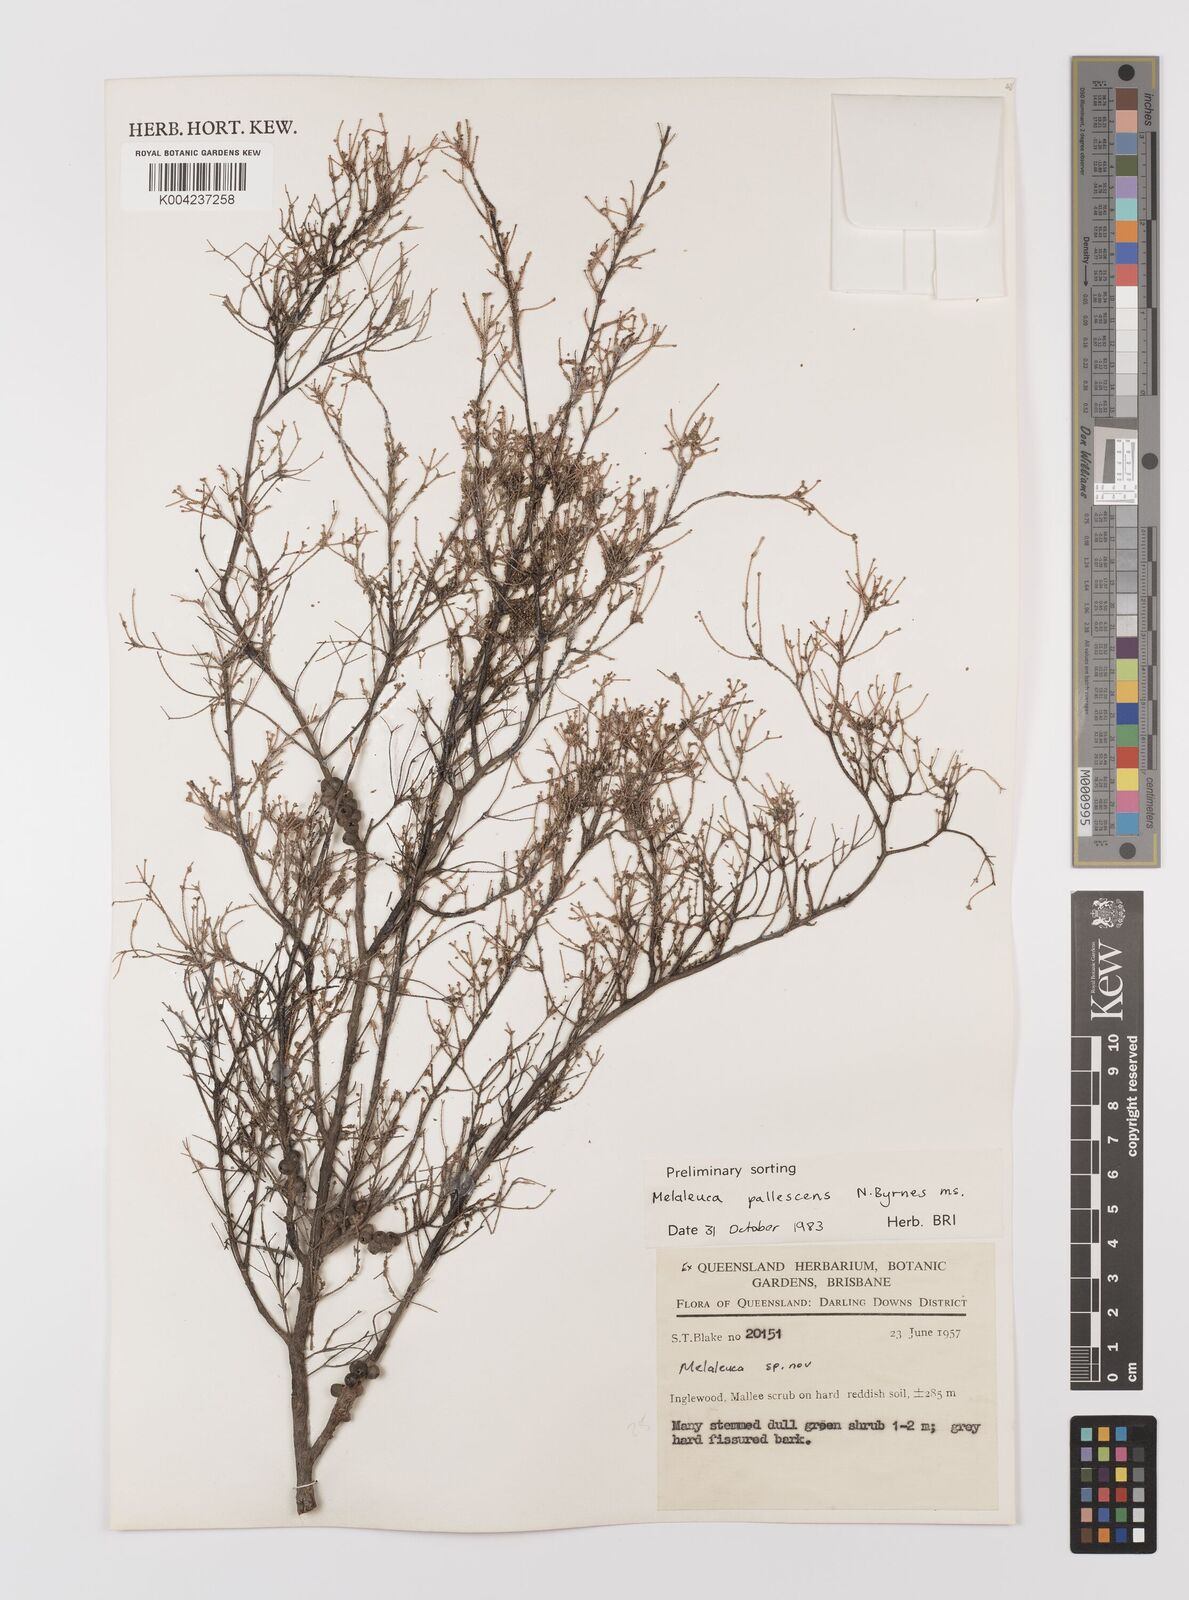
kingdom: Plantae
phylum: Tracheophyta
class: Magnoliopsida
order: Myrtales
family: Myrtaceae
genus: Melaleuca
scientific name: Melaleuca pallescens
